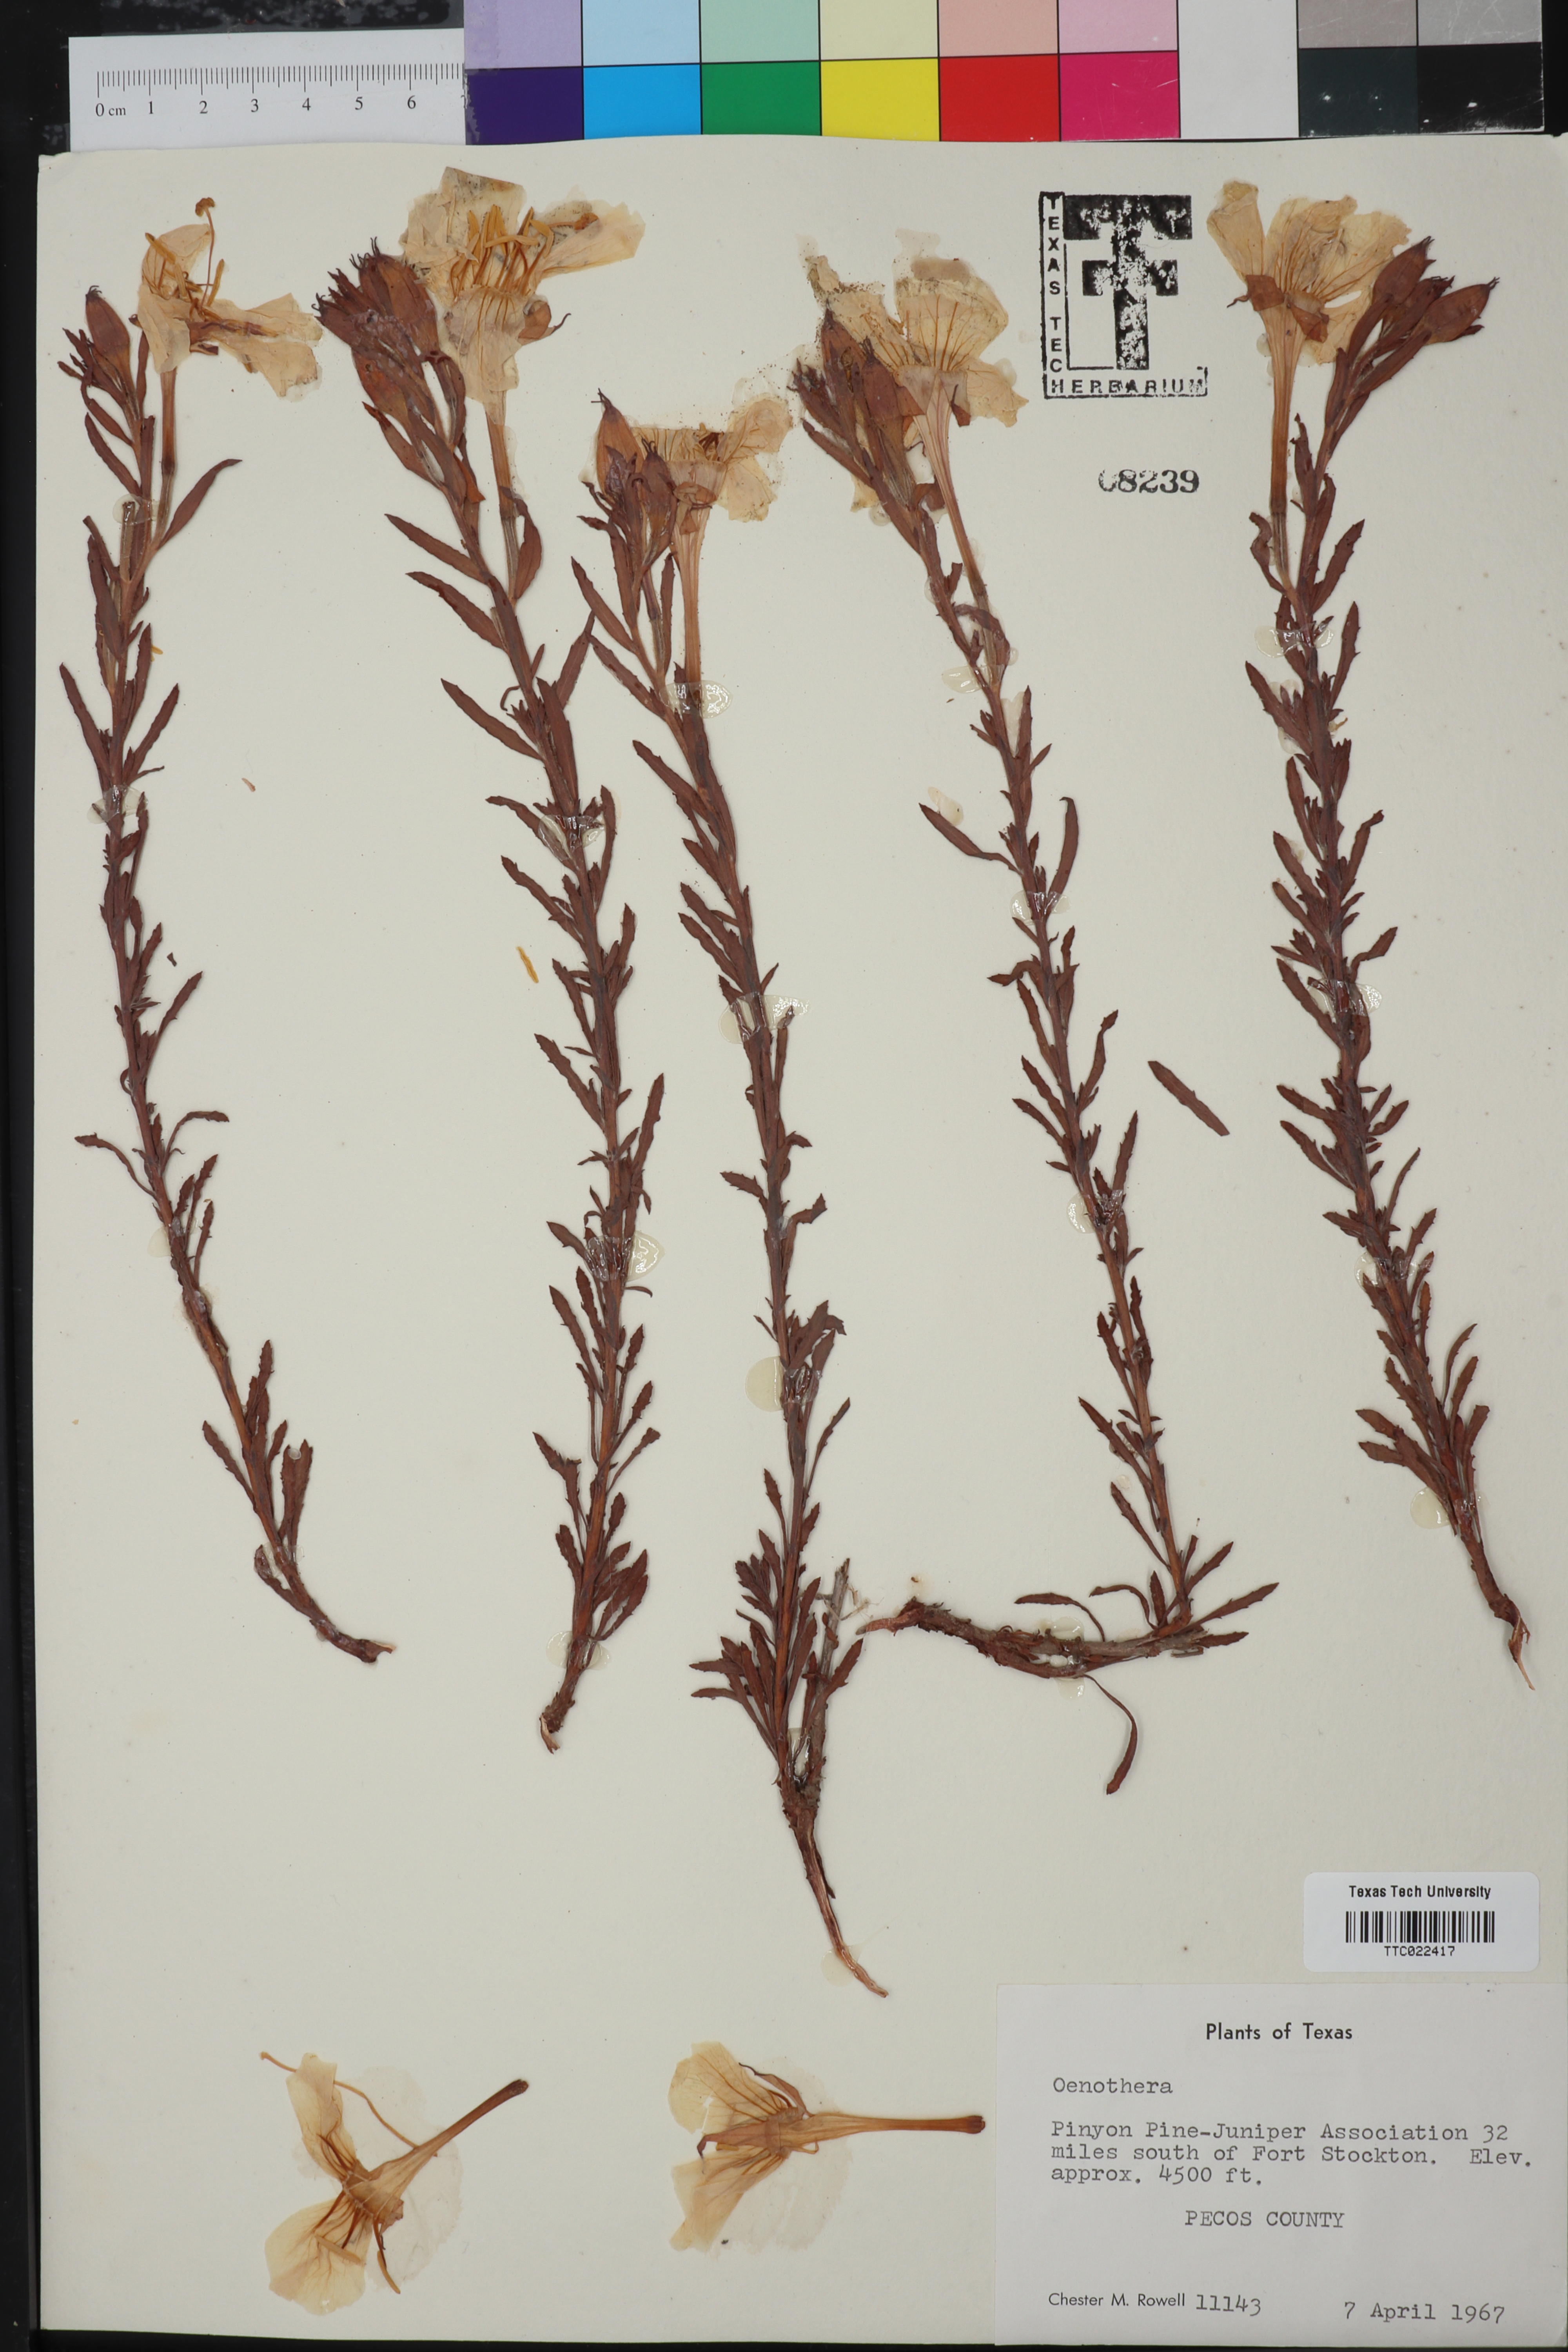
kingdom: Plantae
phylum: Tracheophyta
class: Magnoliopsida
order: Myrtales
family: Onagraceae
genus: Oenothera
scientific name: Oenothera
